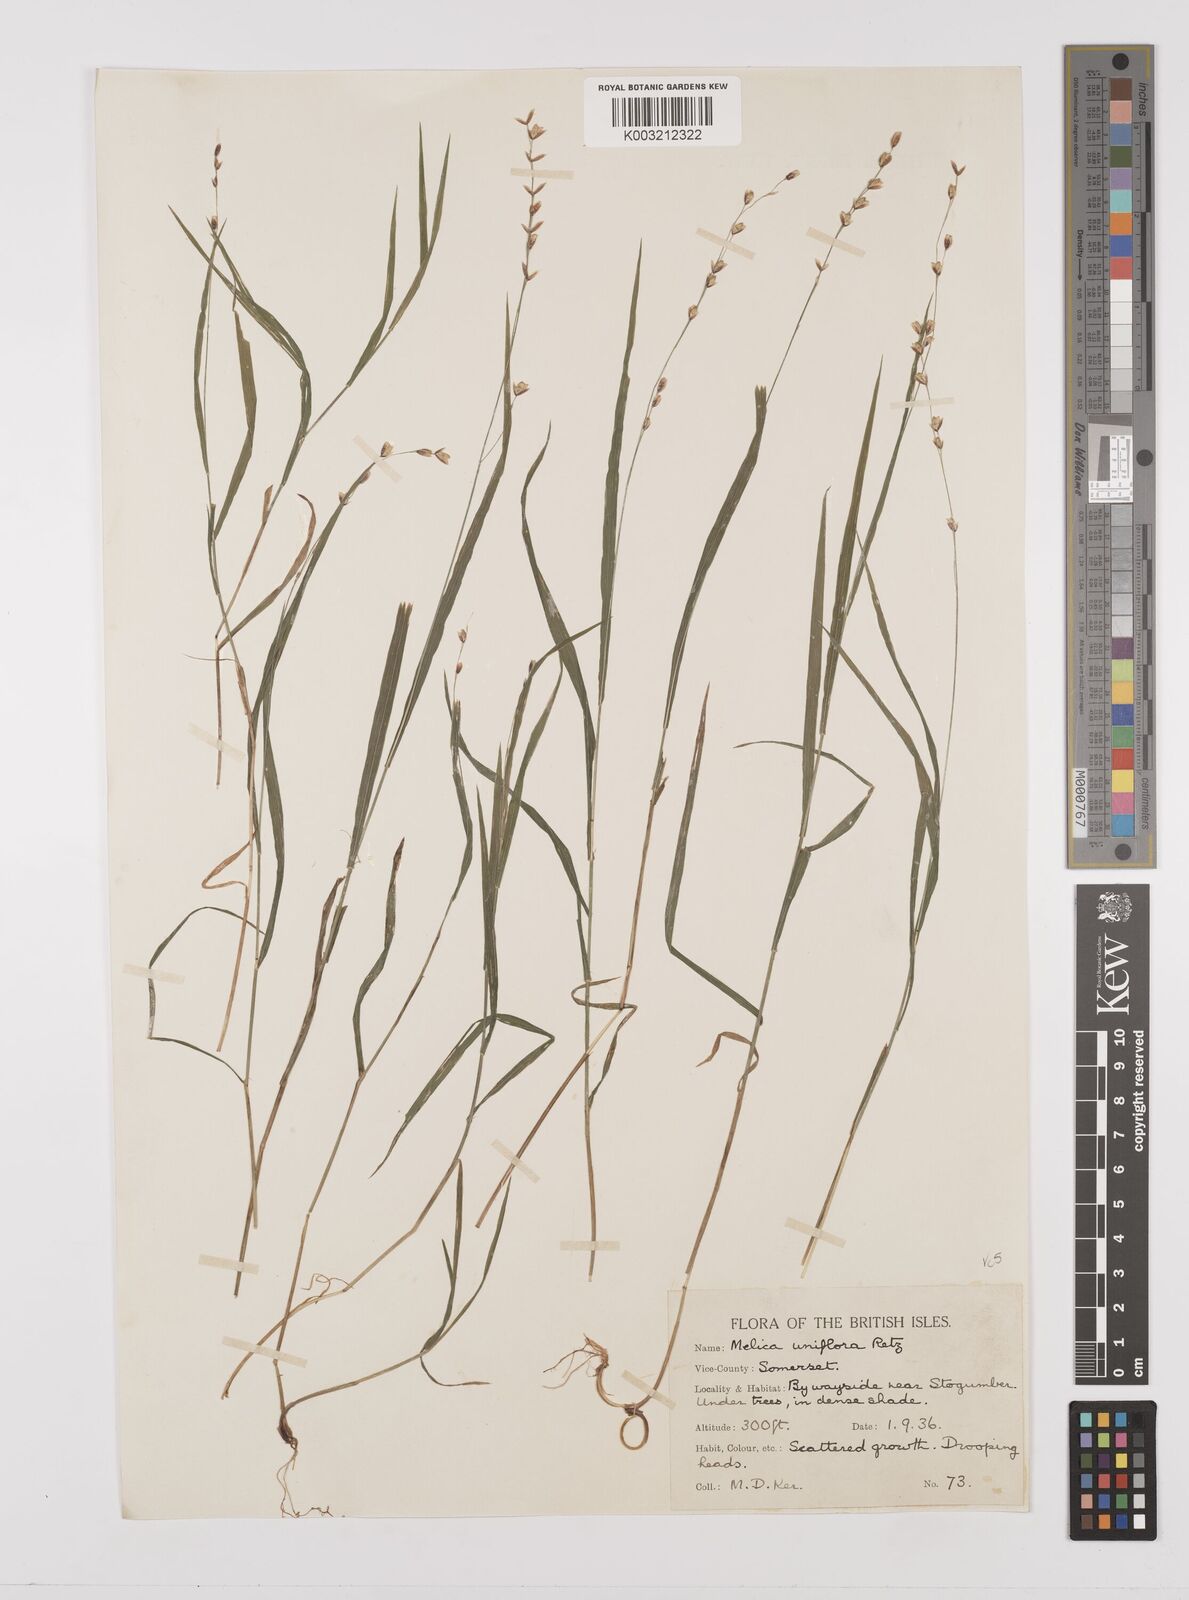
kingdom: Plantae
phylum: Tracheophyta
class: Liliopsida
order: Poales
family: Poaceae
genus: Melica
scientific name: Melica uniflora
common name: Wood melick
